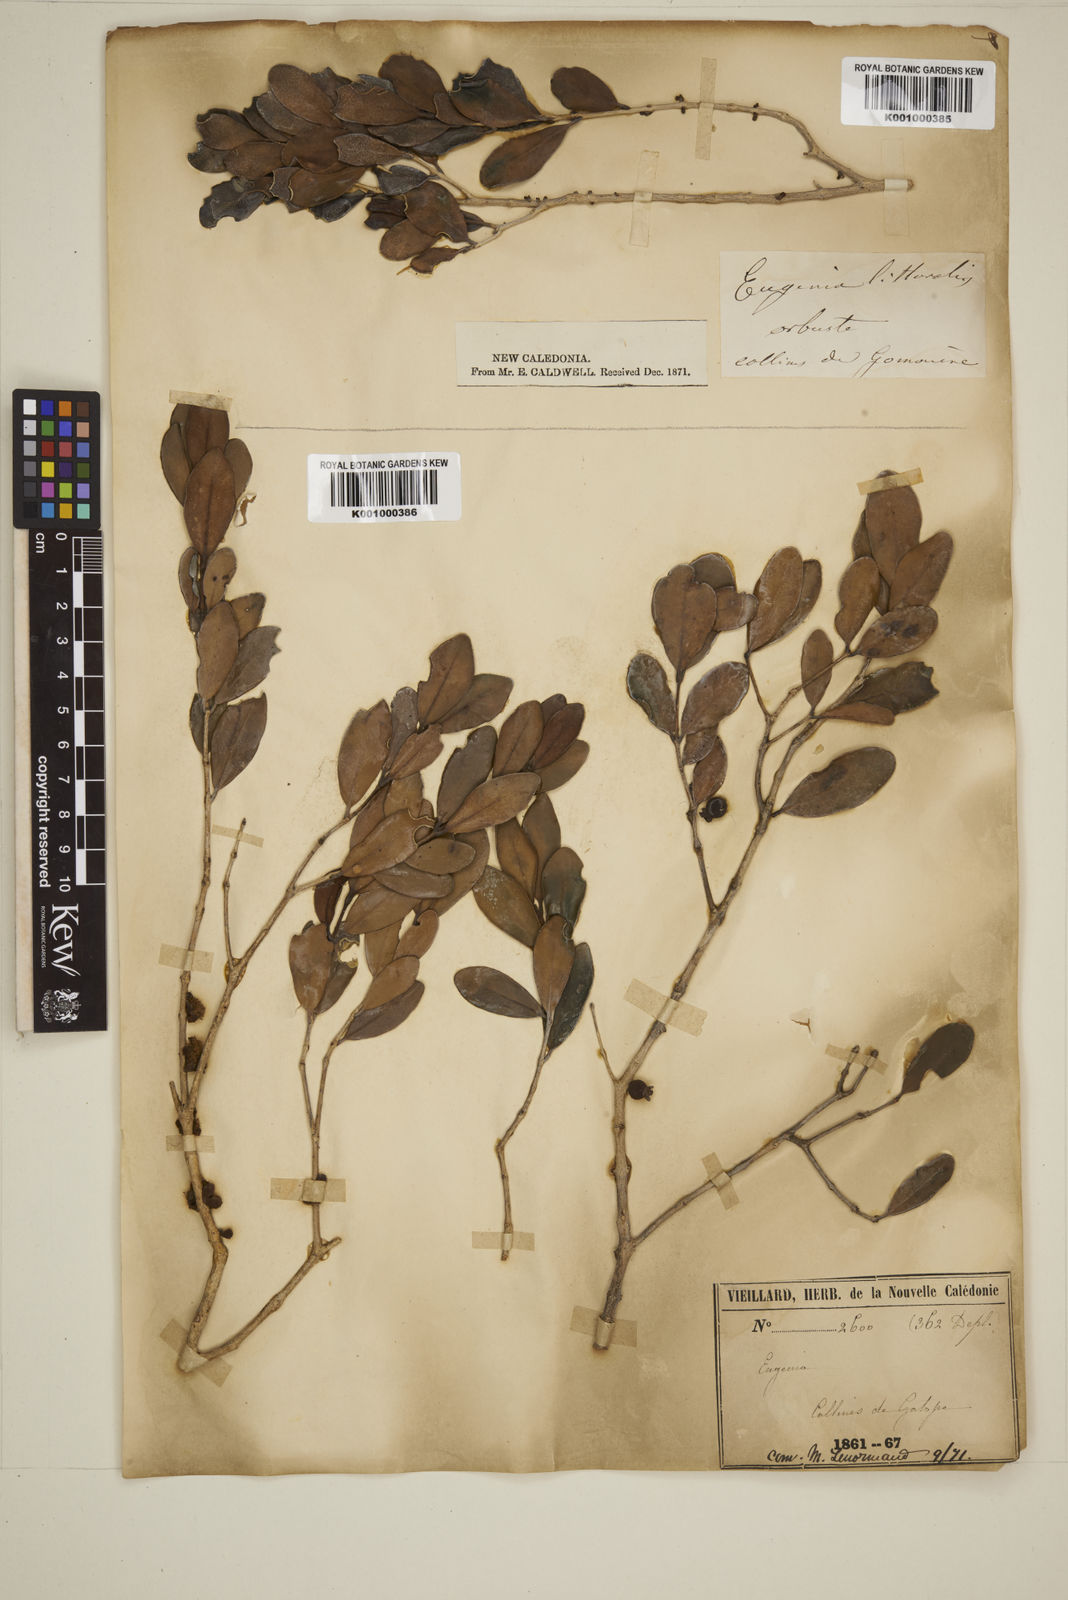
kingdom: Plantae
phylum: Tracheophyta
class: Magnoliopsida
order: Myrtales
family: Myrtaceae
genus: Eugenia
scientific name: Eugenia littoralis
